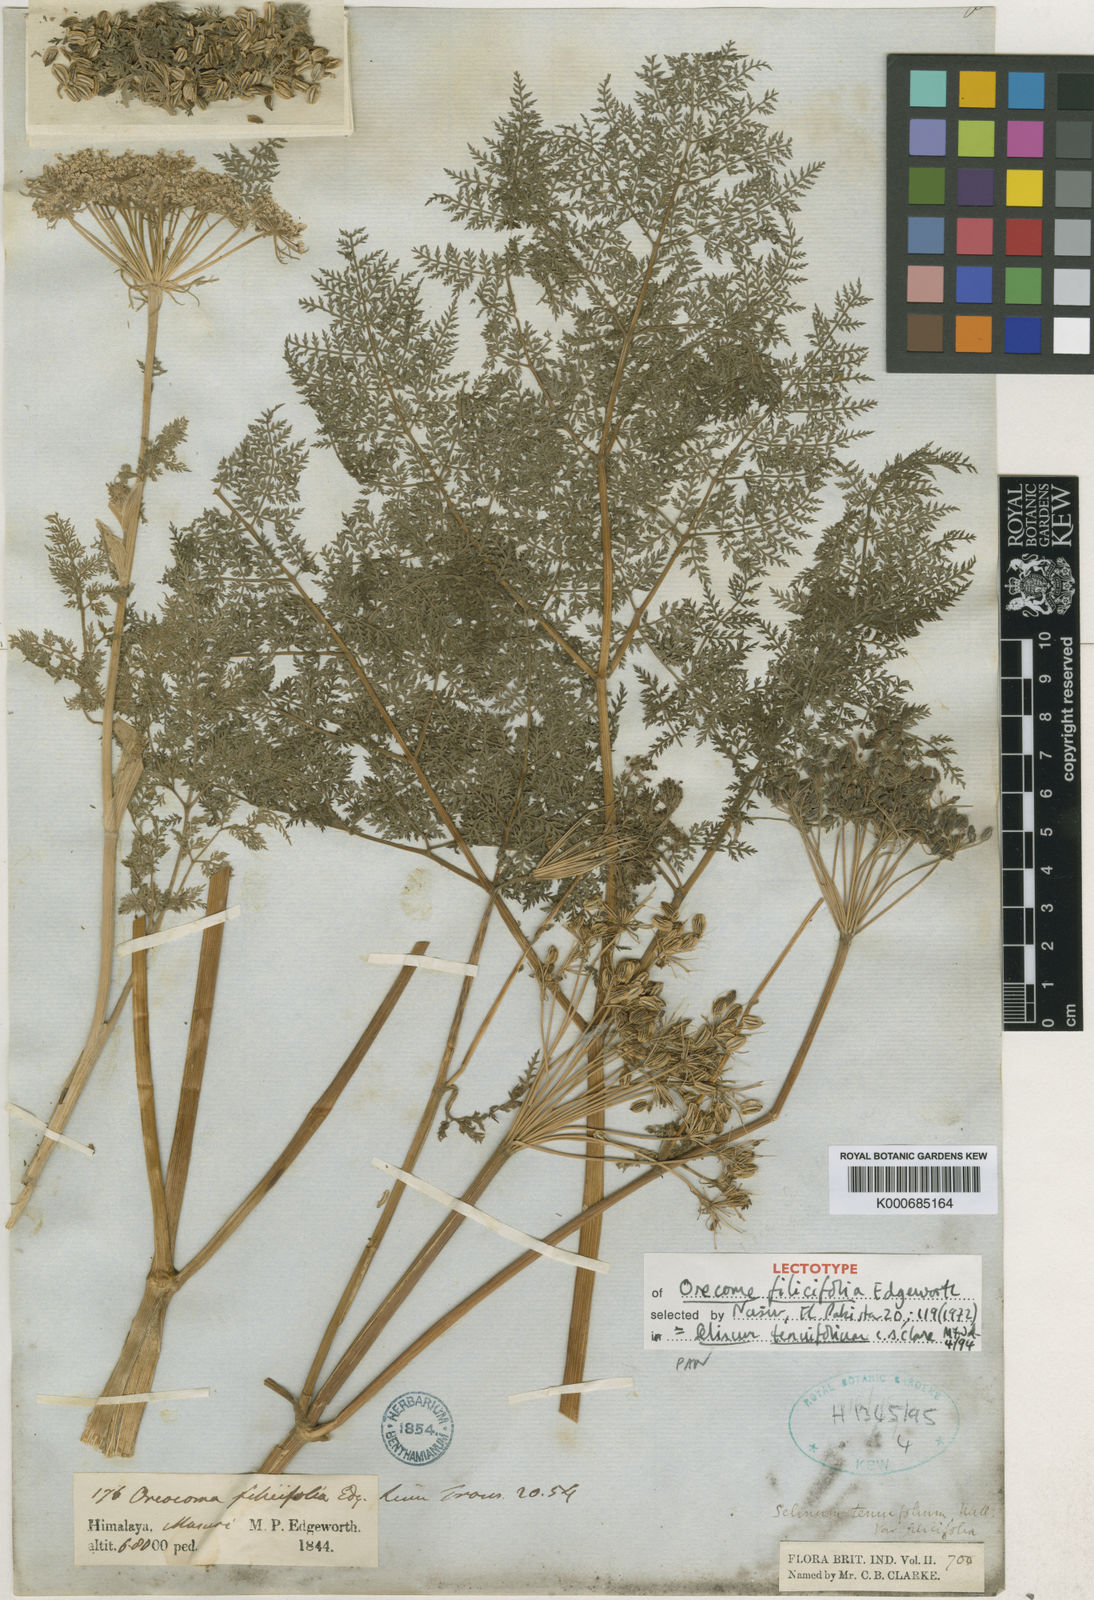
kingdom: Plantae
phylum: Tracheophyta
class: Magnoliopsida
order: Apiales
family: Apiaceae
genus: Selinum
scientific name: Selinum
